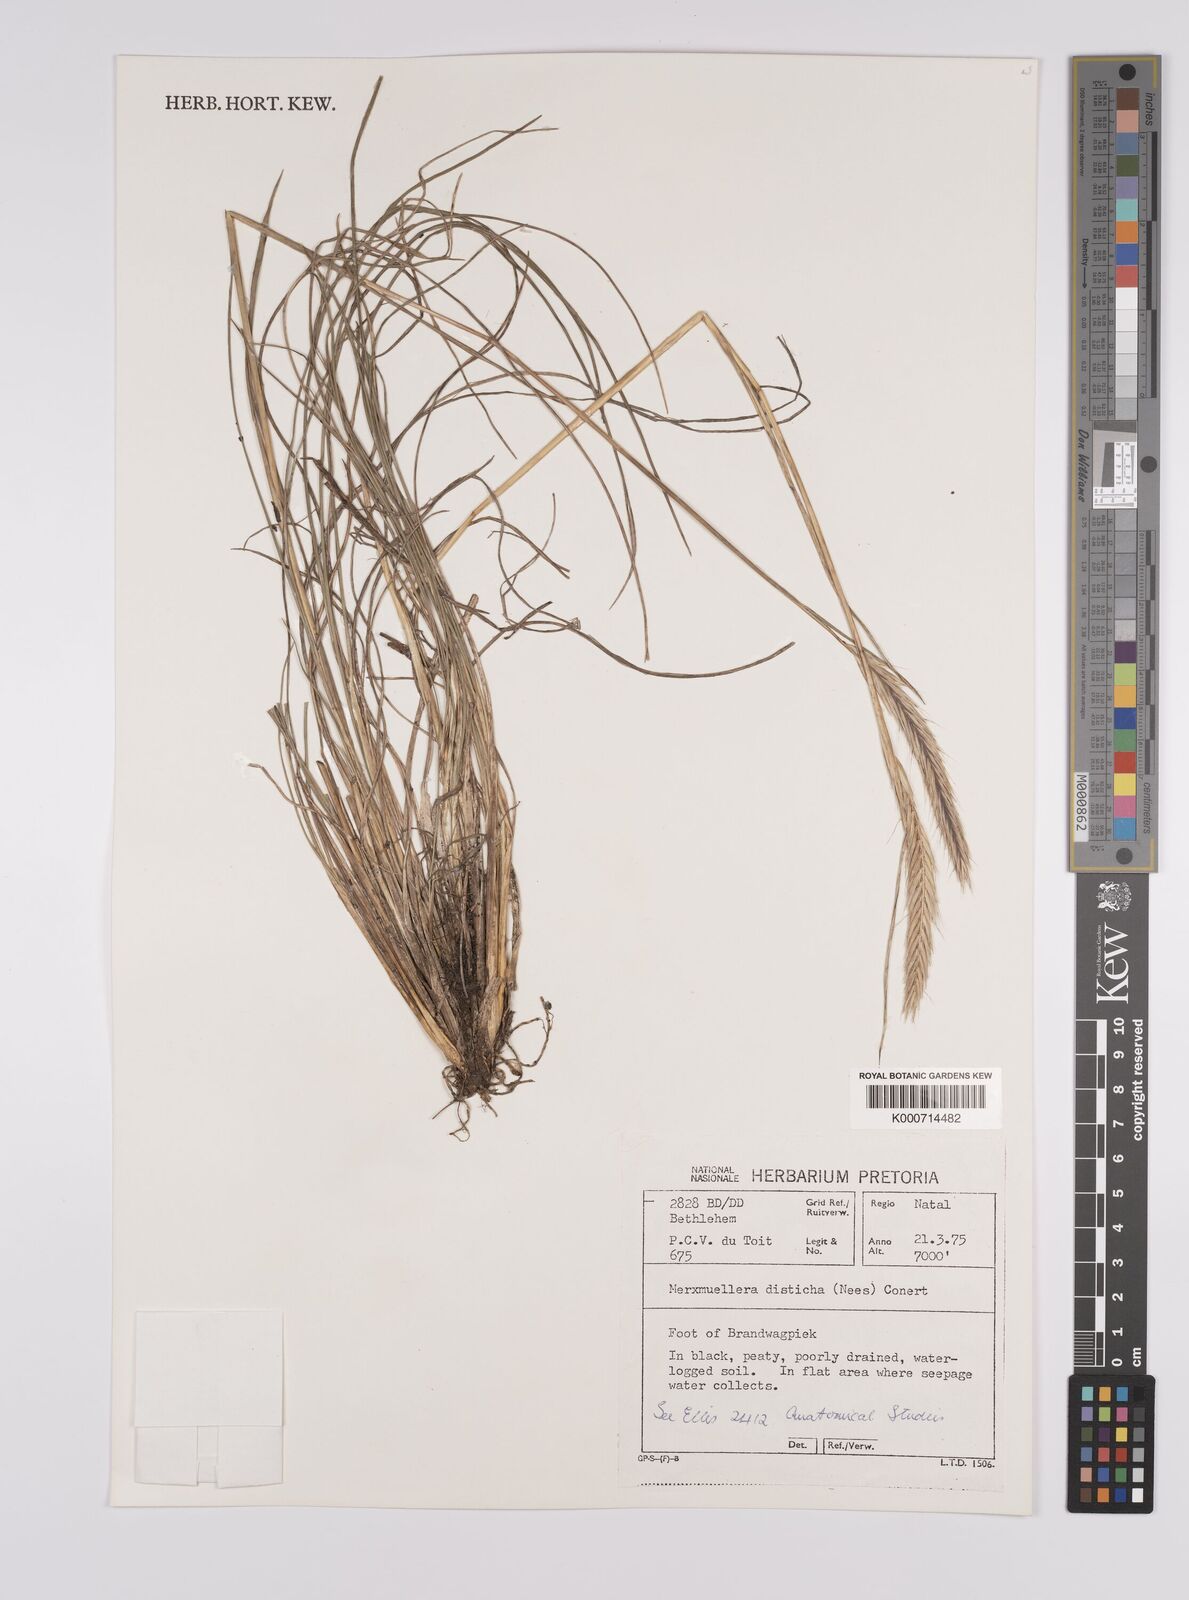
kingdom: Plantae
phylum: Tracheophyta
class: Liliopsida
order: Poales
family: Poaceae
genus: Tenaxia
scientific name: Tenaxia disticha
